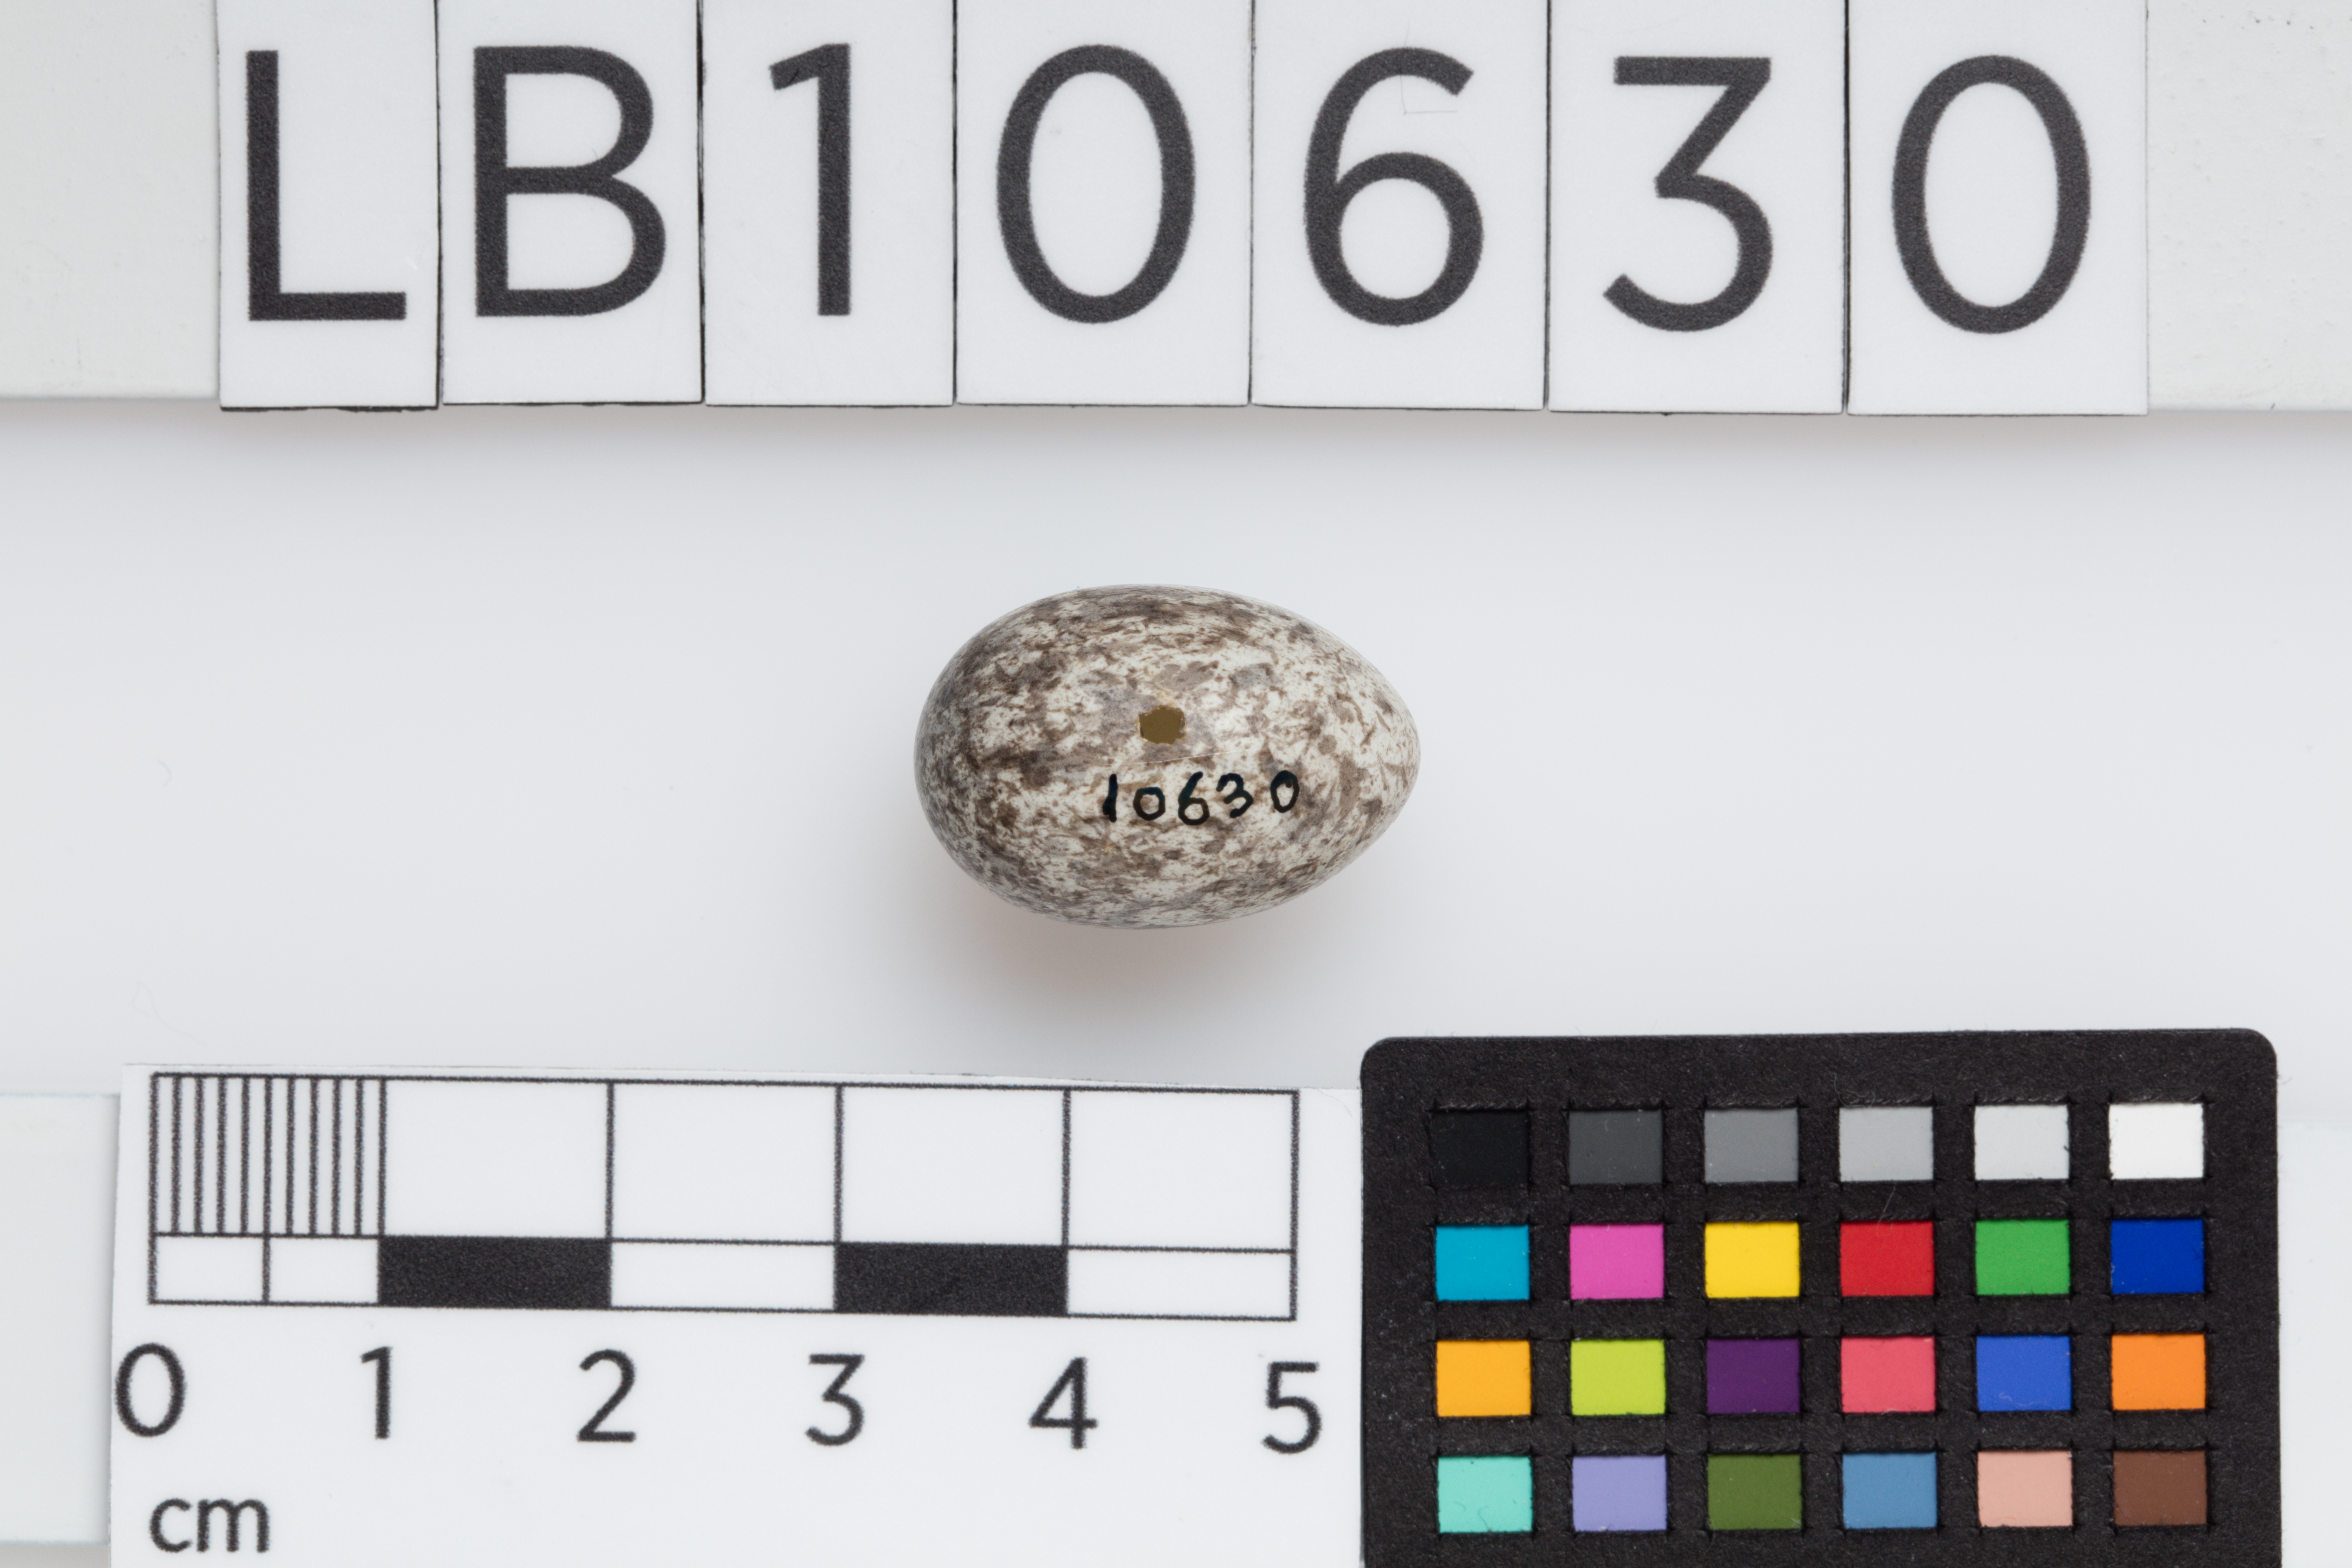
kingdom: Animalia
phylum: Chordata
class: Aves
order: Passeriformes
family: Passeridae
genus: Passer
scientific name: Passer domesticus
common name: House sparrow
